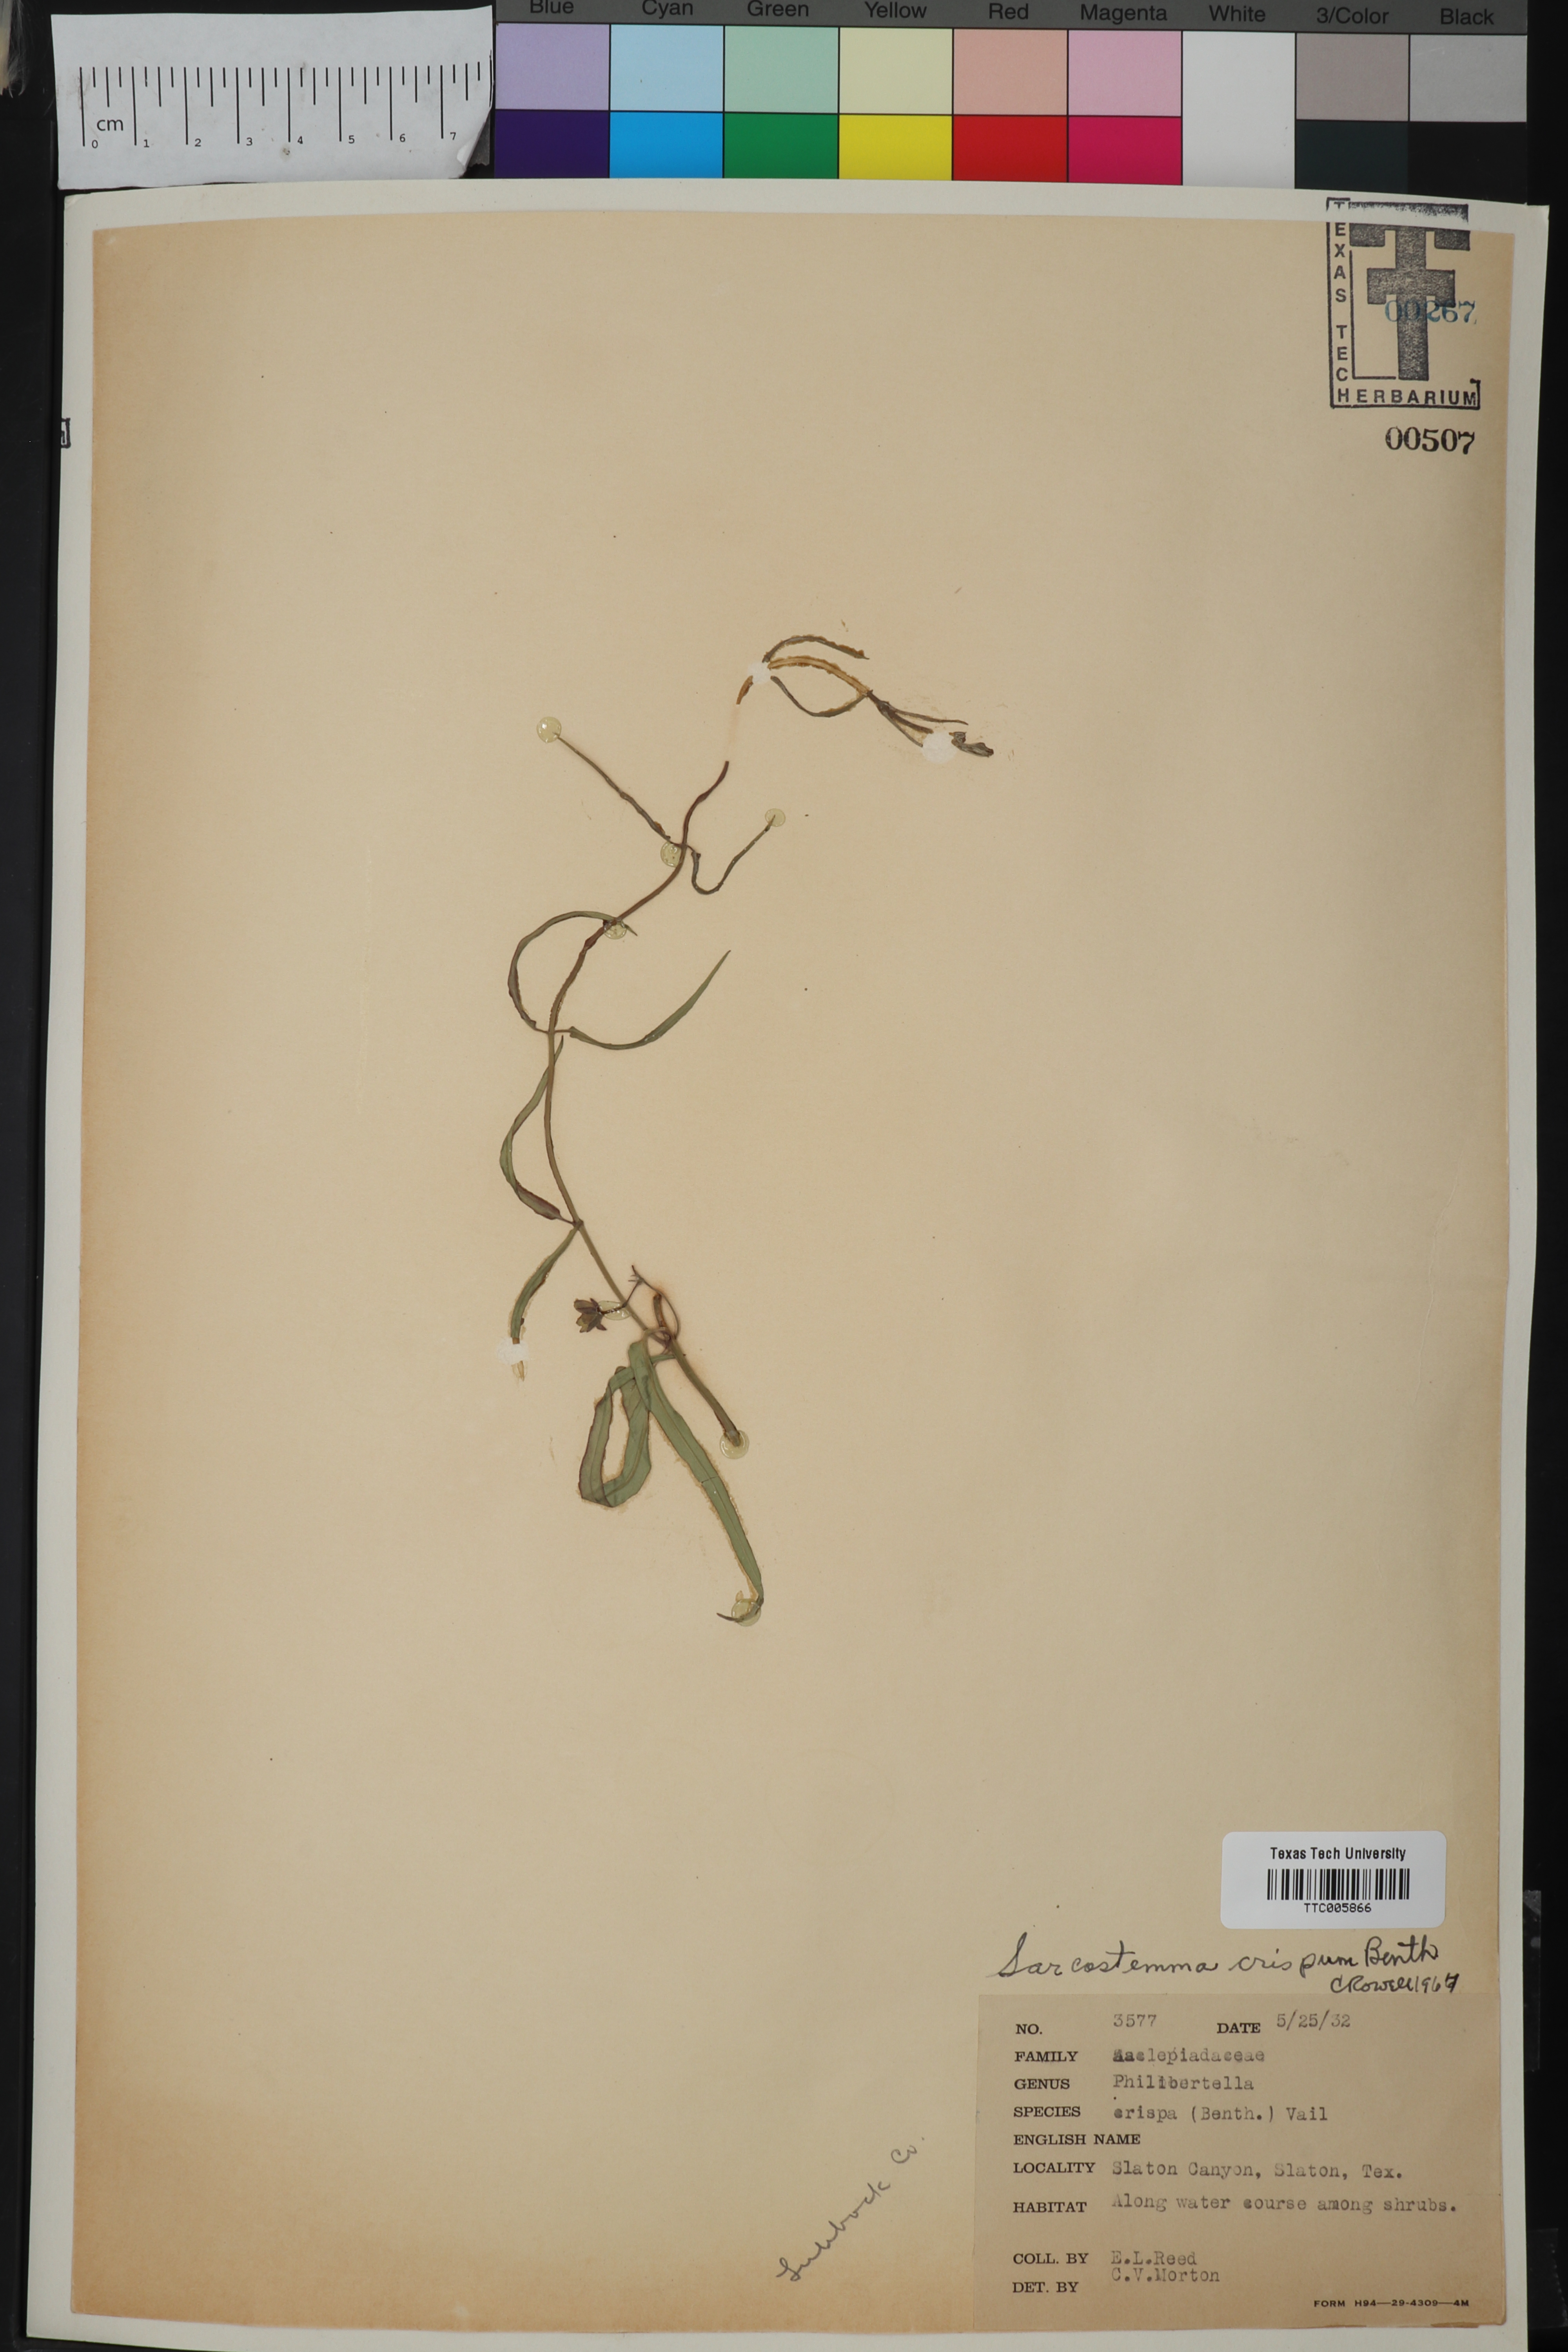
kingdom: Plantae
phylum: Tracheophyta
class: Magnoliopsida
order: Gentianales
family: Apocynaceae
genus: Funastrum
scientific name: Funastrum crispum
